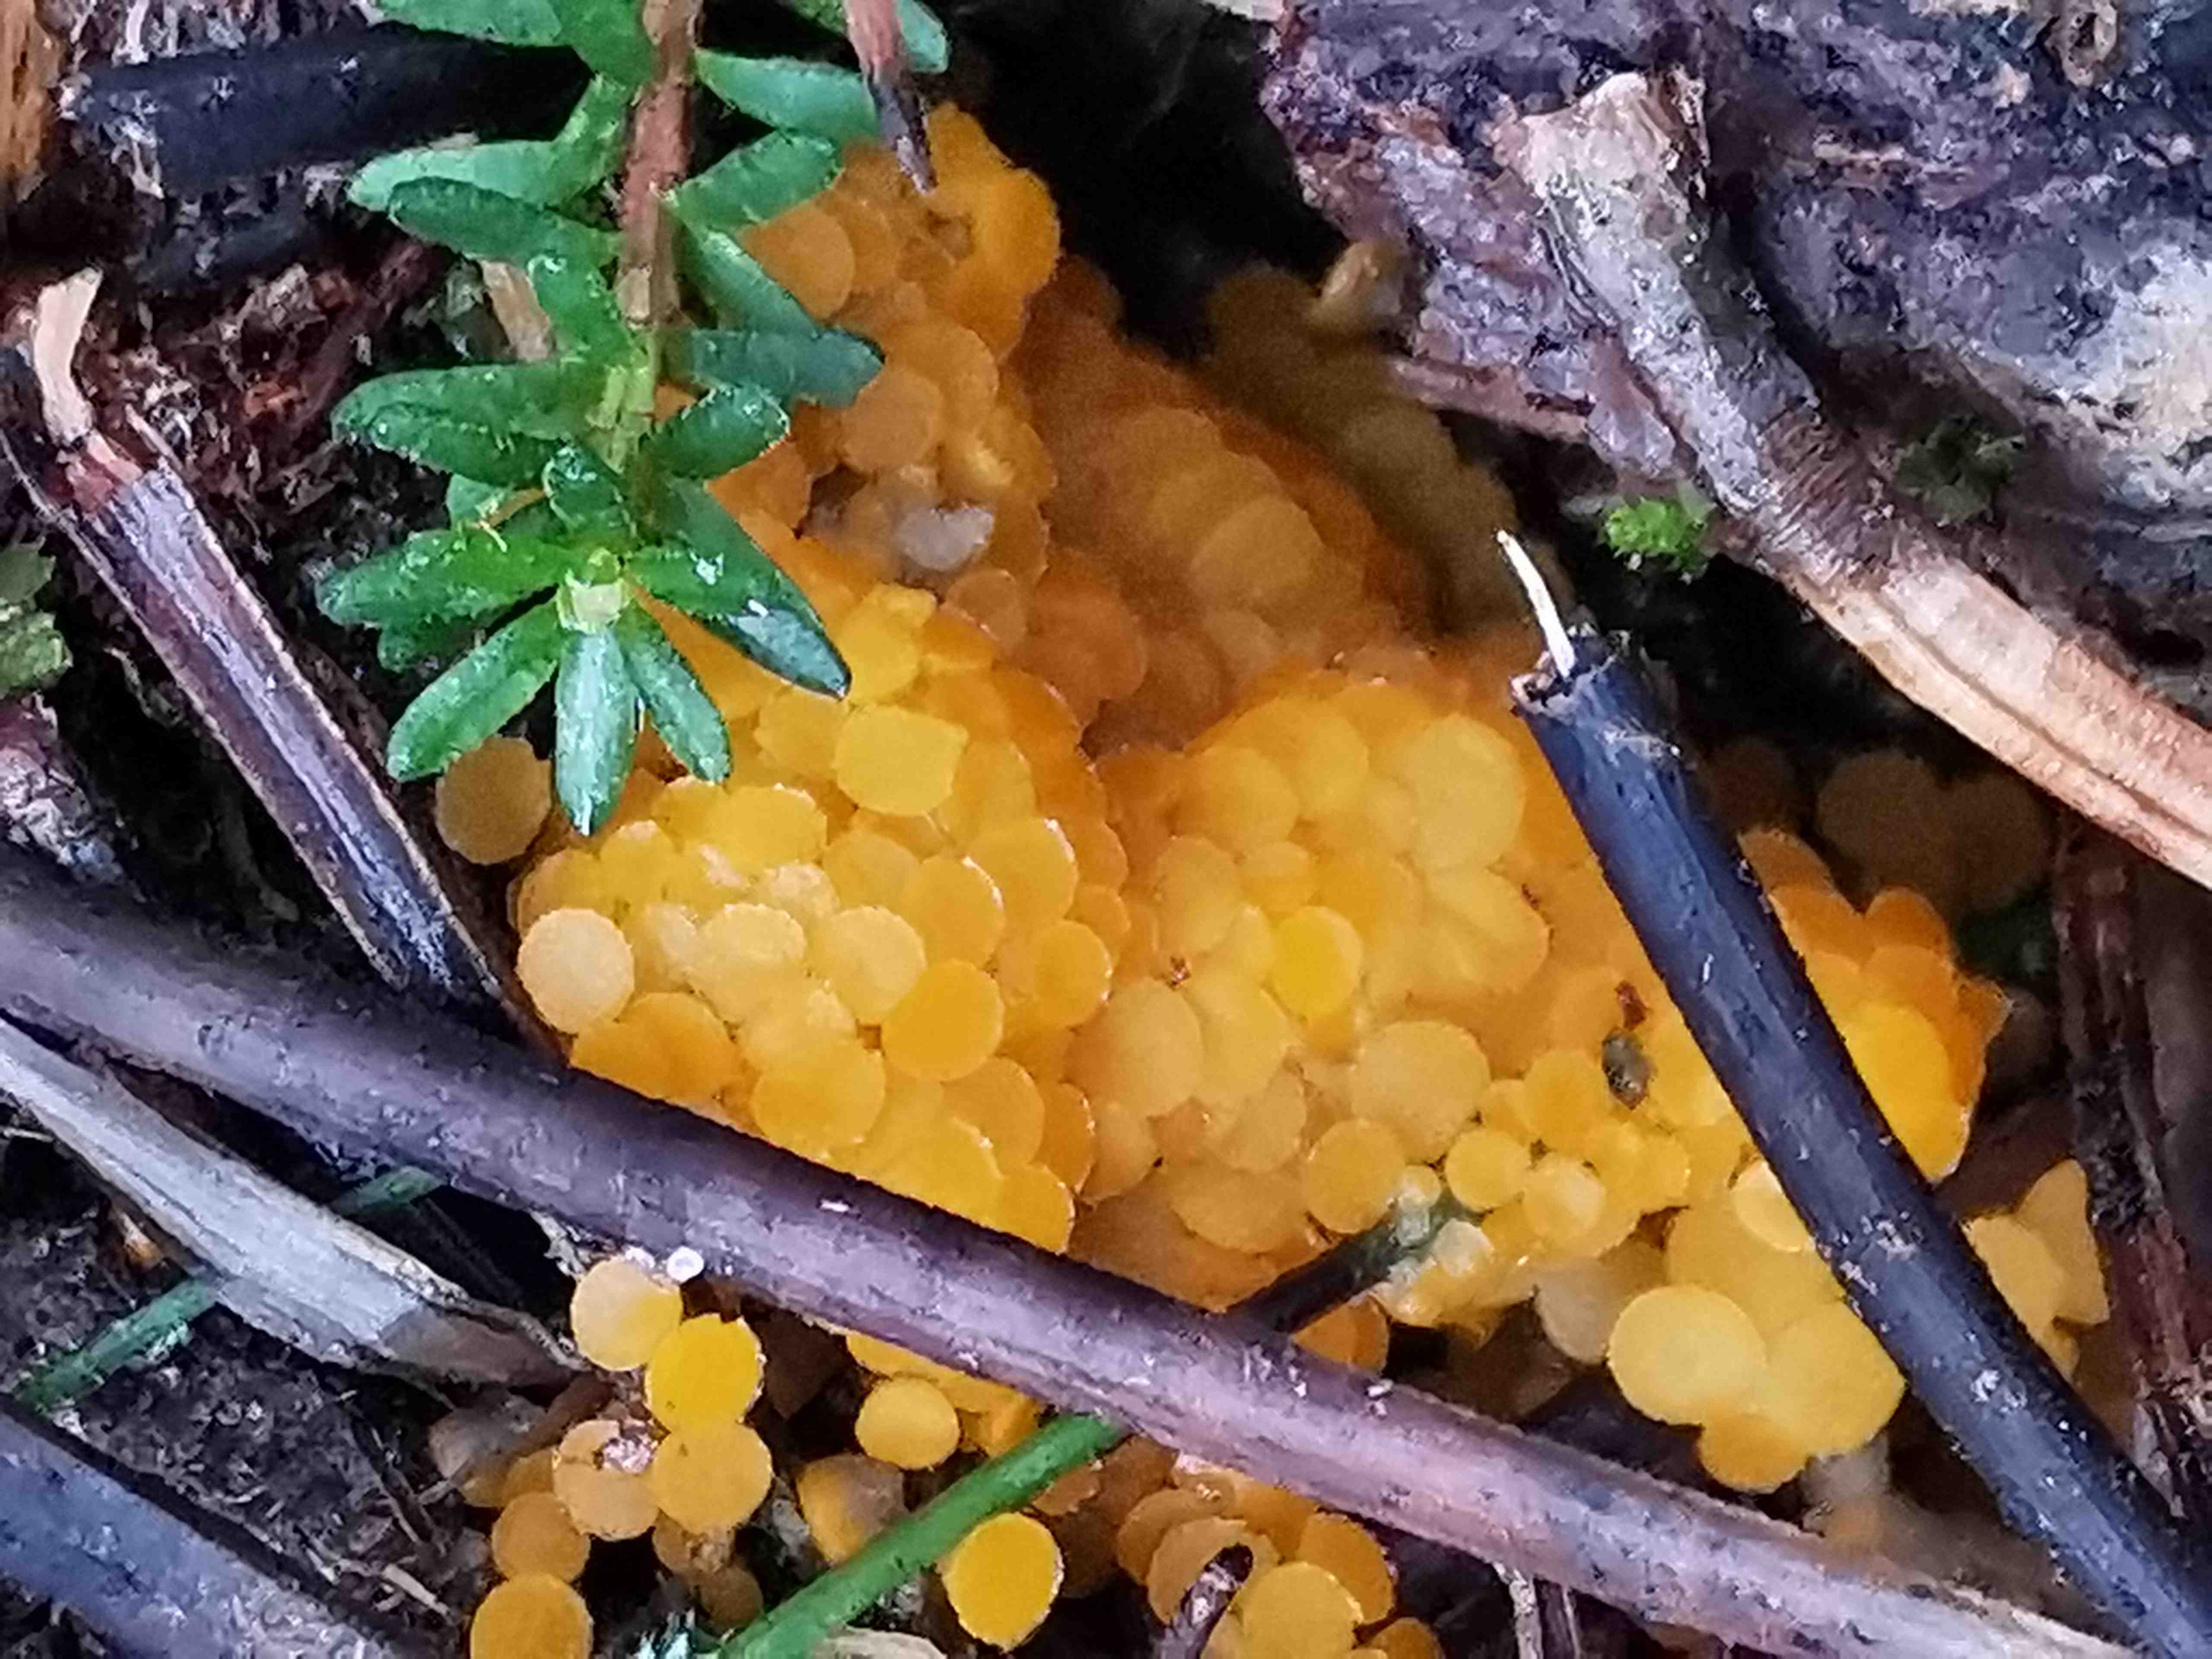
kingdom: Fungi
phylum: Ascomycota
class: Pezizomycetes
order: Pezizales
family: Pyronemataceae
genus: Byssonectria
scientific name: Byssonectria terrestris
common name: hjortebæger
